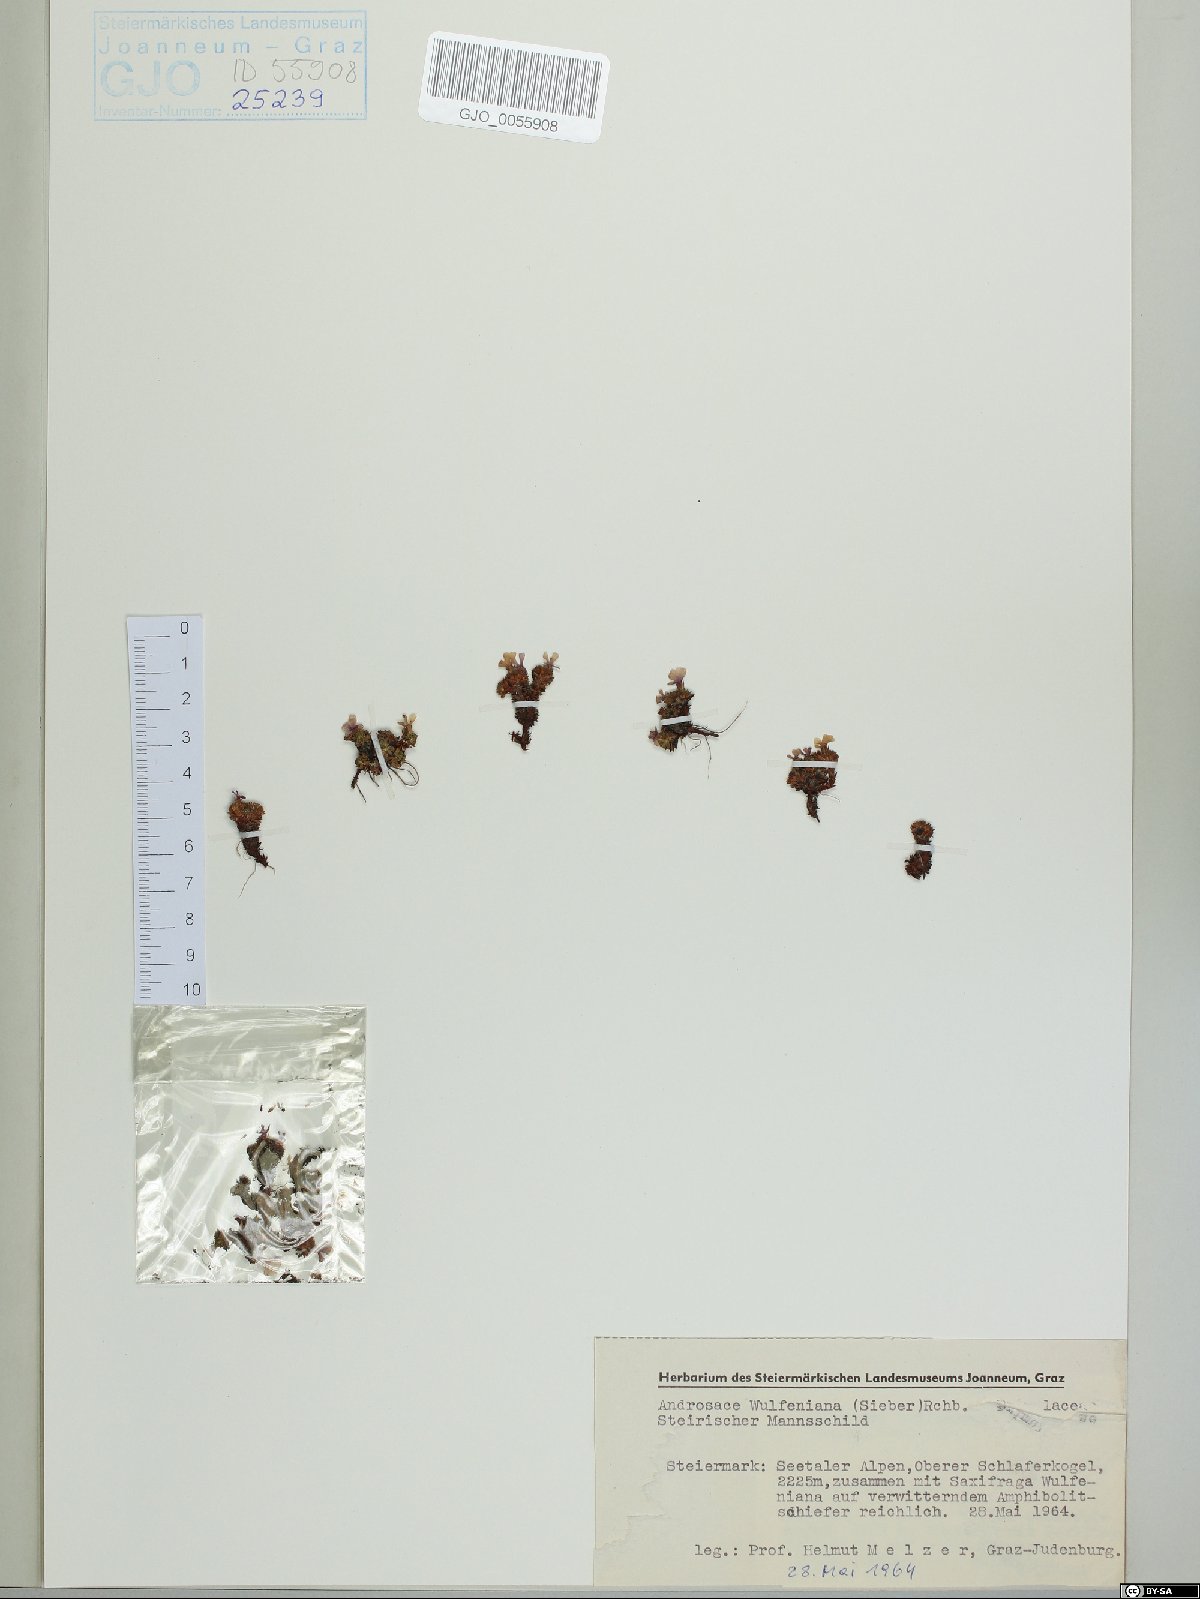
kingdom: Plantae
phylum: Tracheophyta
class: Magnoliopsida
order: Ericales
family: Primulaceae
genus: Androsace
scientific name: Androsace wulfeniana
